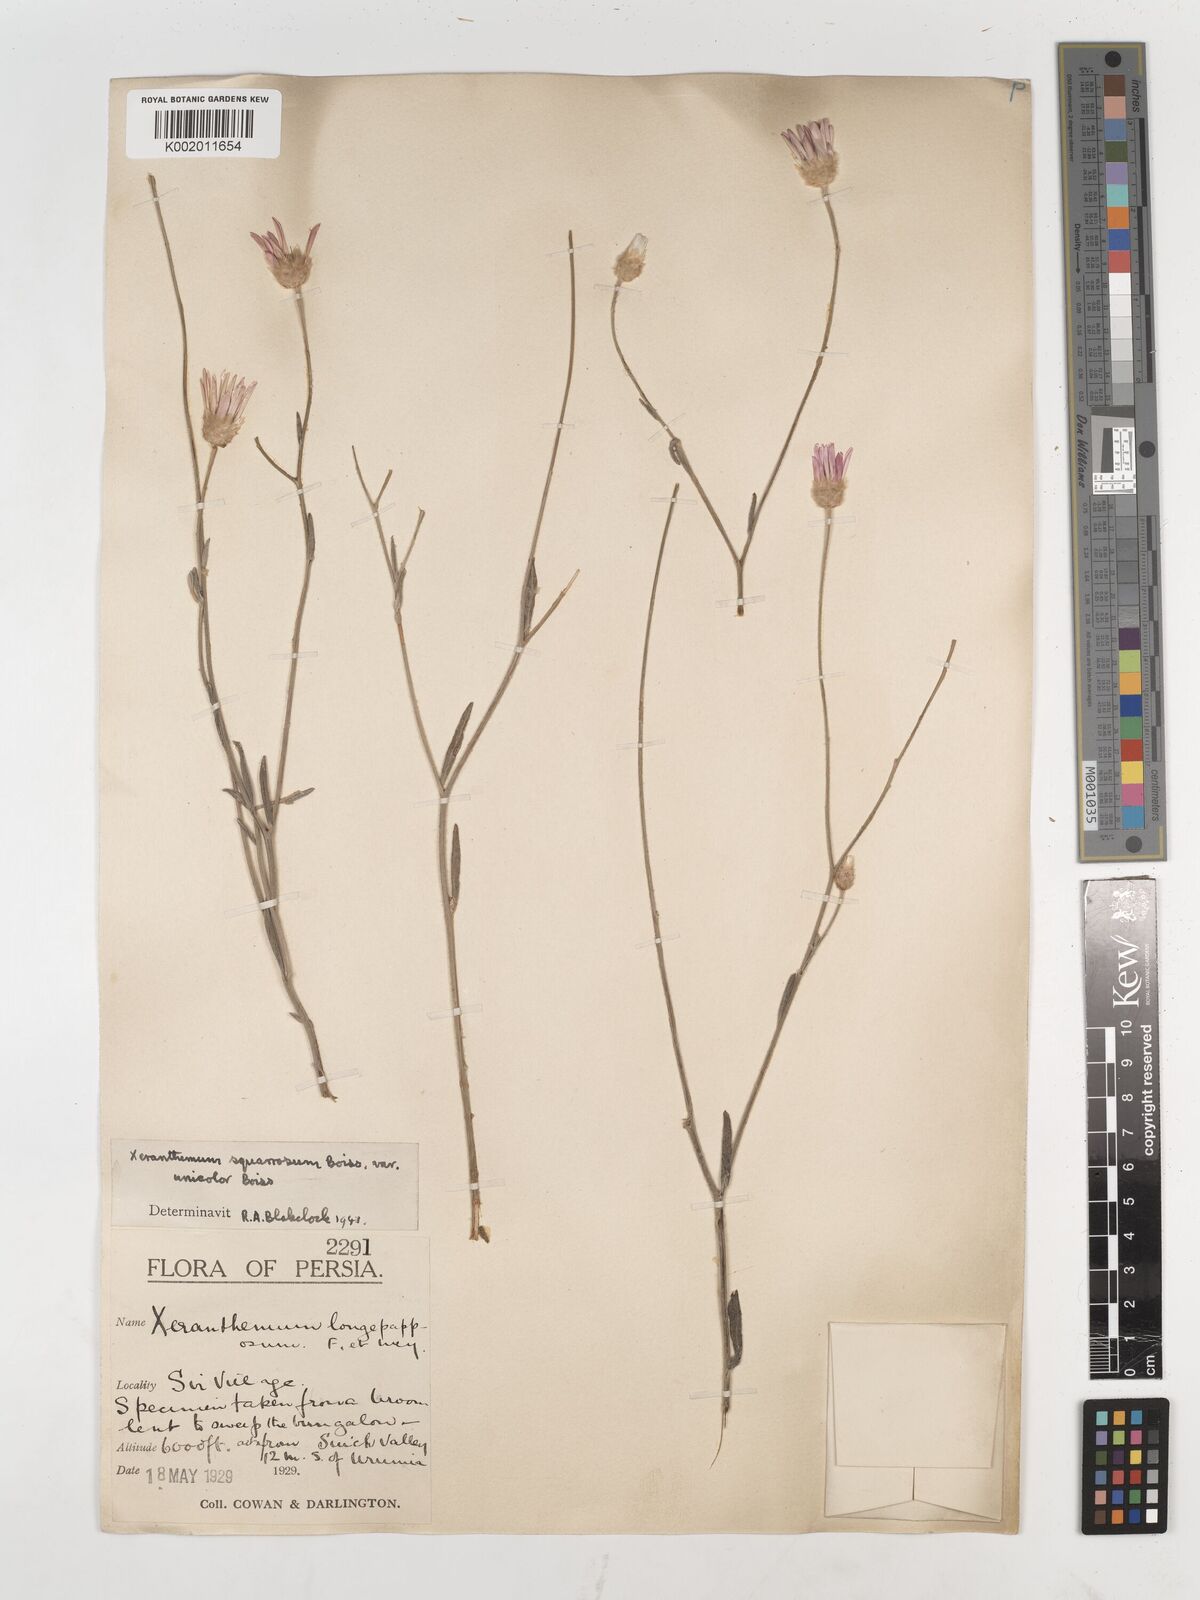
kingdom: Plantae
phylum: Tracheophyta
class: Magnoliopsida
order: Asterales
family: Asteraceae
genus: Xeranthemum
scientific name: Xeranthemum squarrosum
